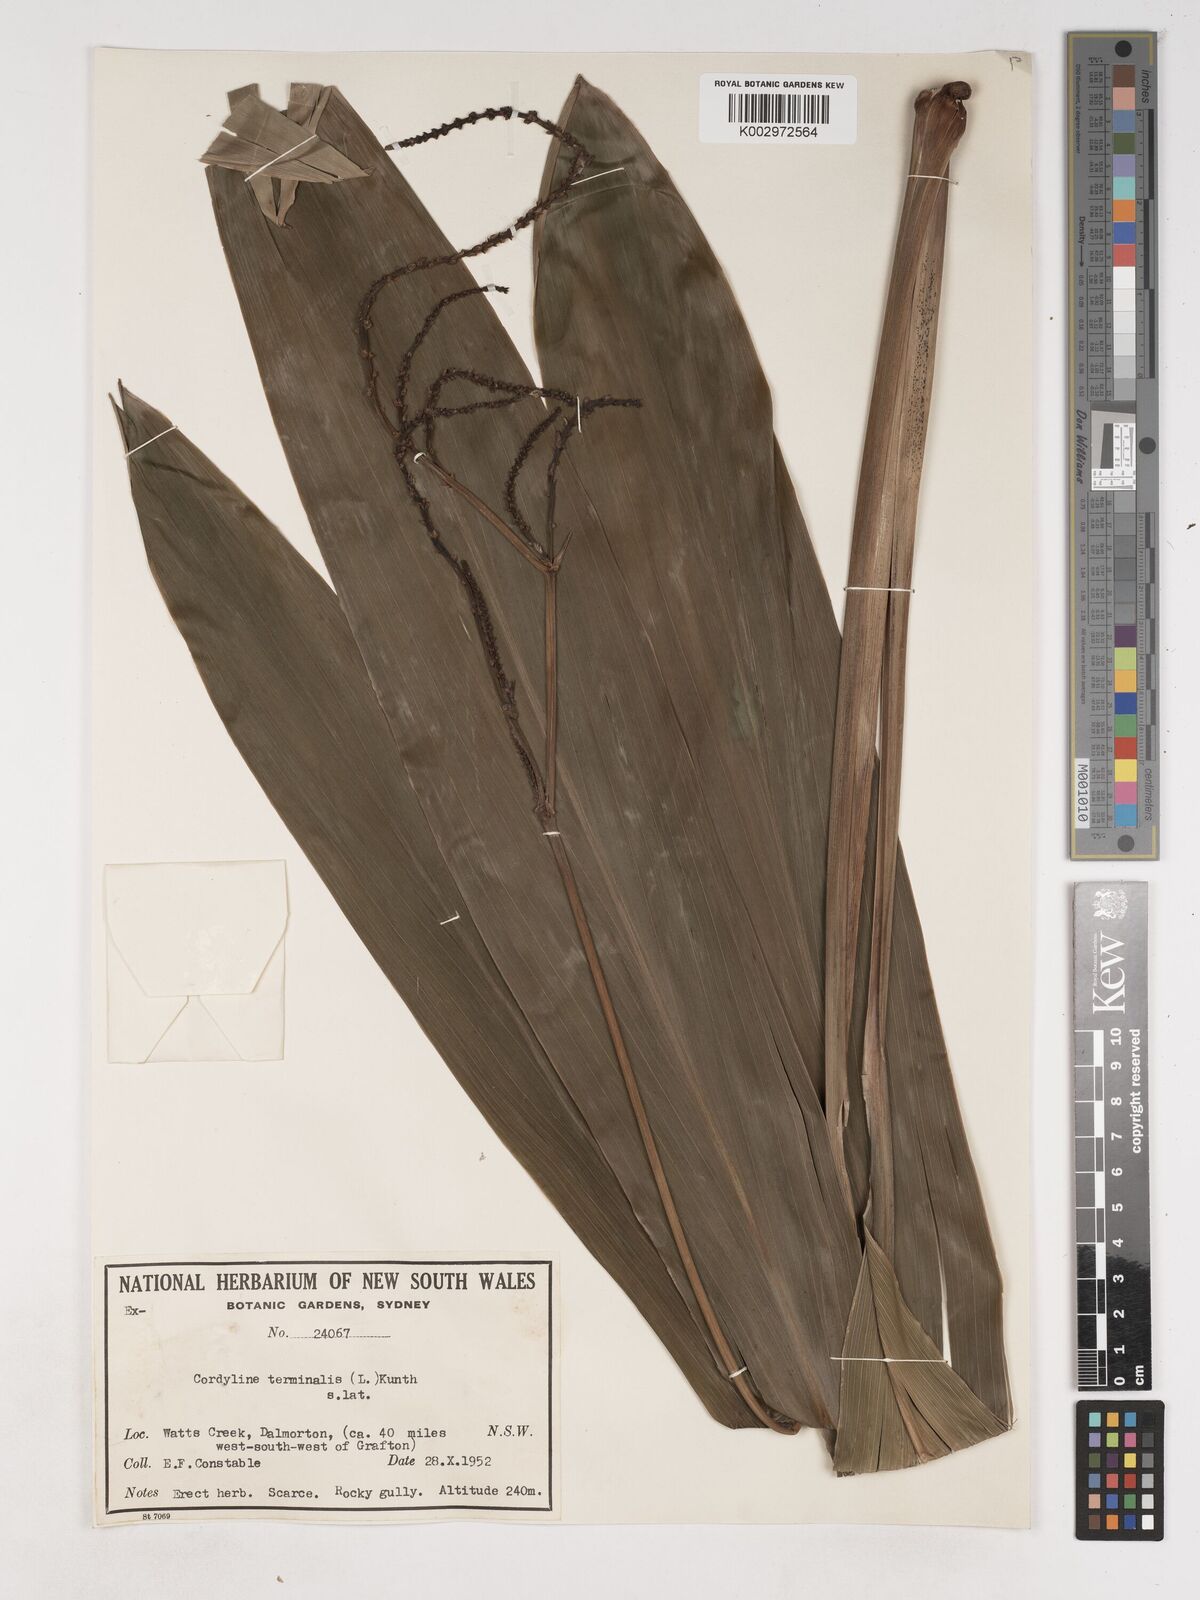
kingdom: Plantae
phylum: Tracheophyta
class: Liliopsida
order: Asparagales
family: Asparagaceae
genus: Cordyline
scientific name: Cordyline fruticosa
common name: Good-luck-plant
